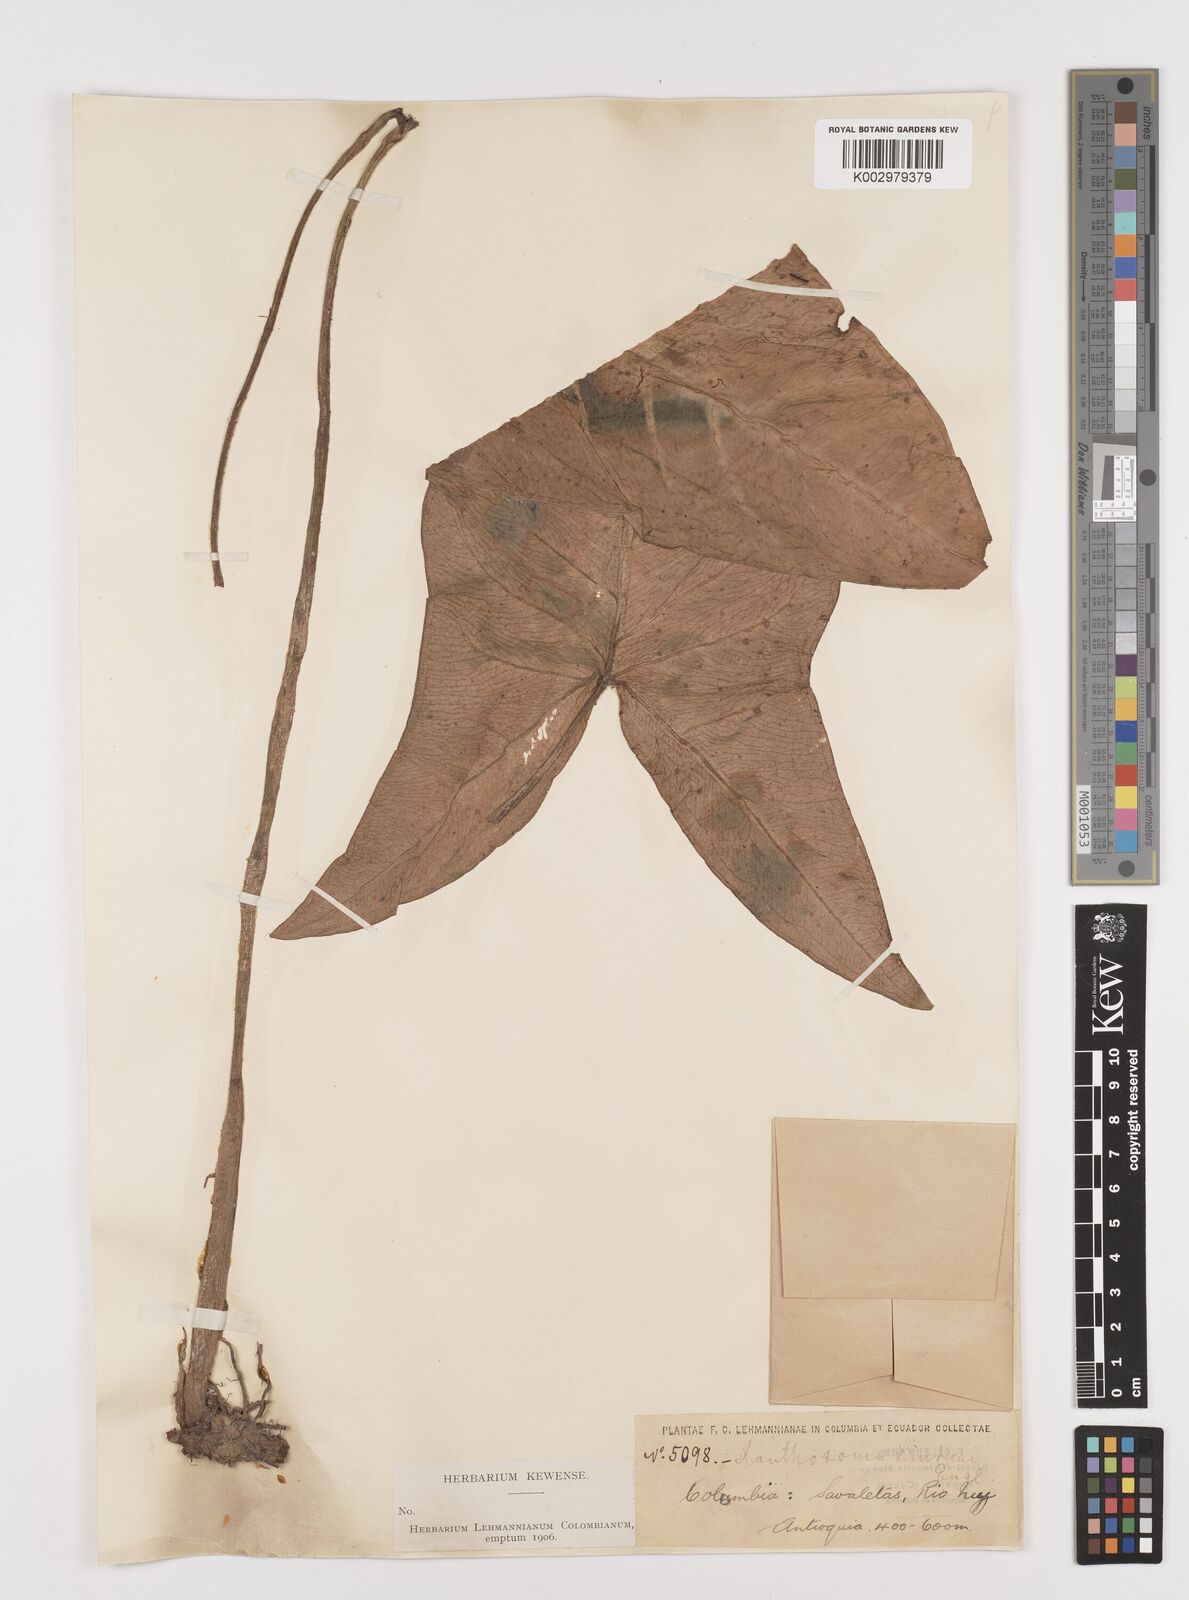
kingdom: Plantae
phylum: Tracheophyta
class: Liliopsida
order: Alismatales
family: Araceae
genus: Caladium
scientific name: Caladium
